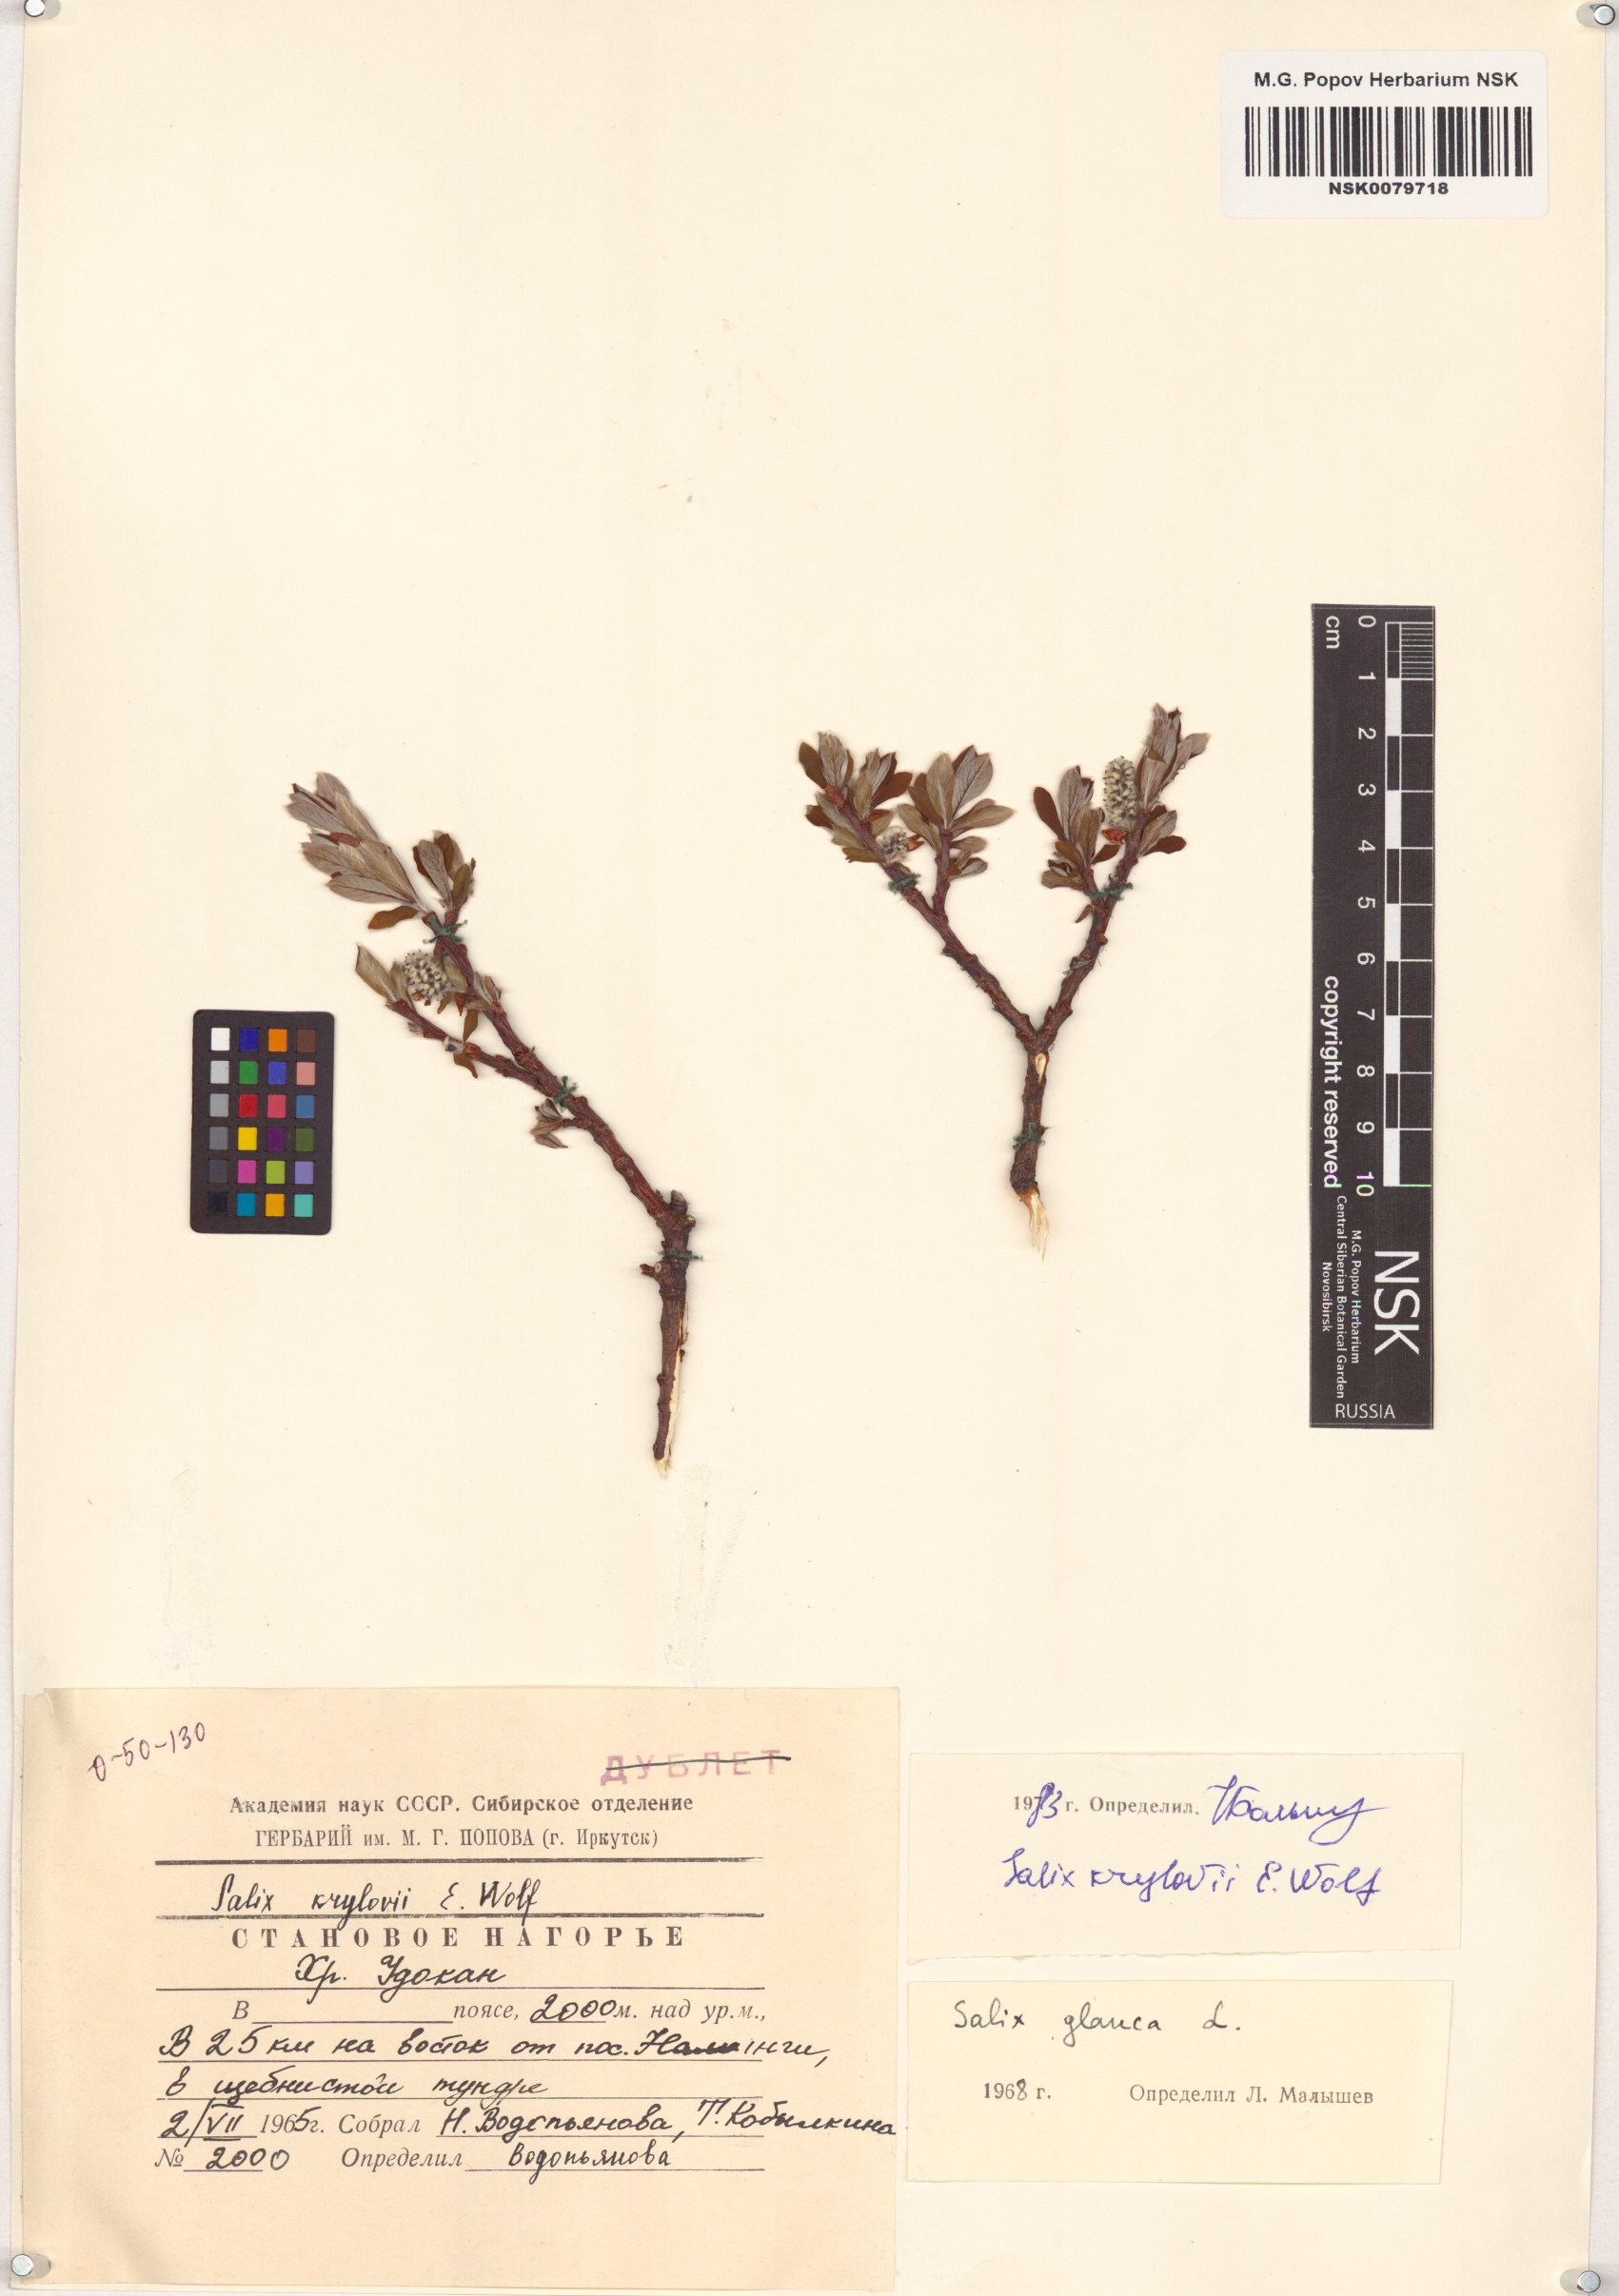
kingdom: Plantae
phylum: Tracheophyta
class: Magnoliopsida
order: Malpighiales
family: Salicaceae
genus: Salix
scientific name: Salix krylovii
